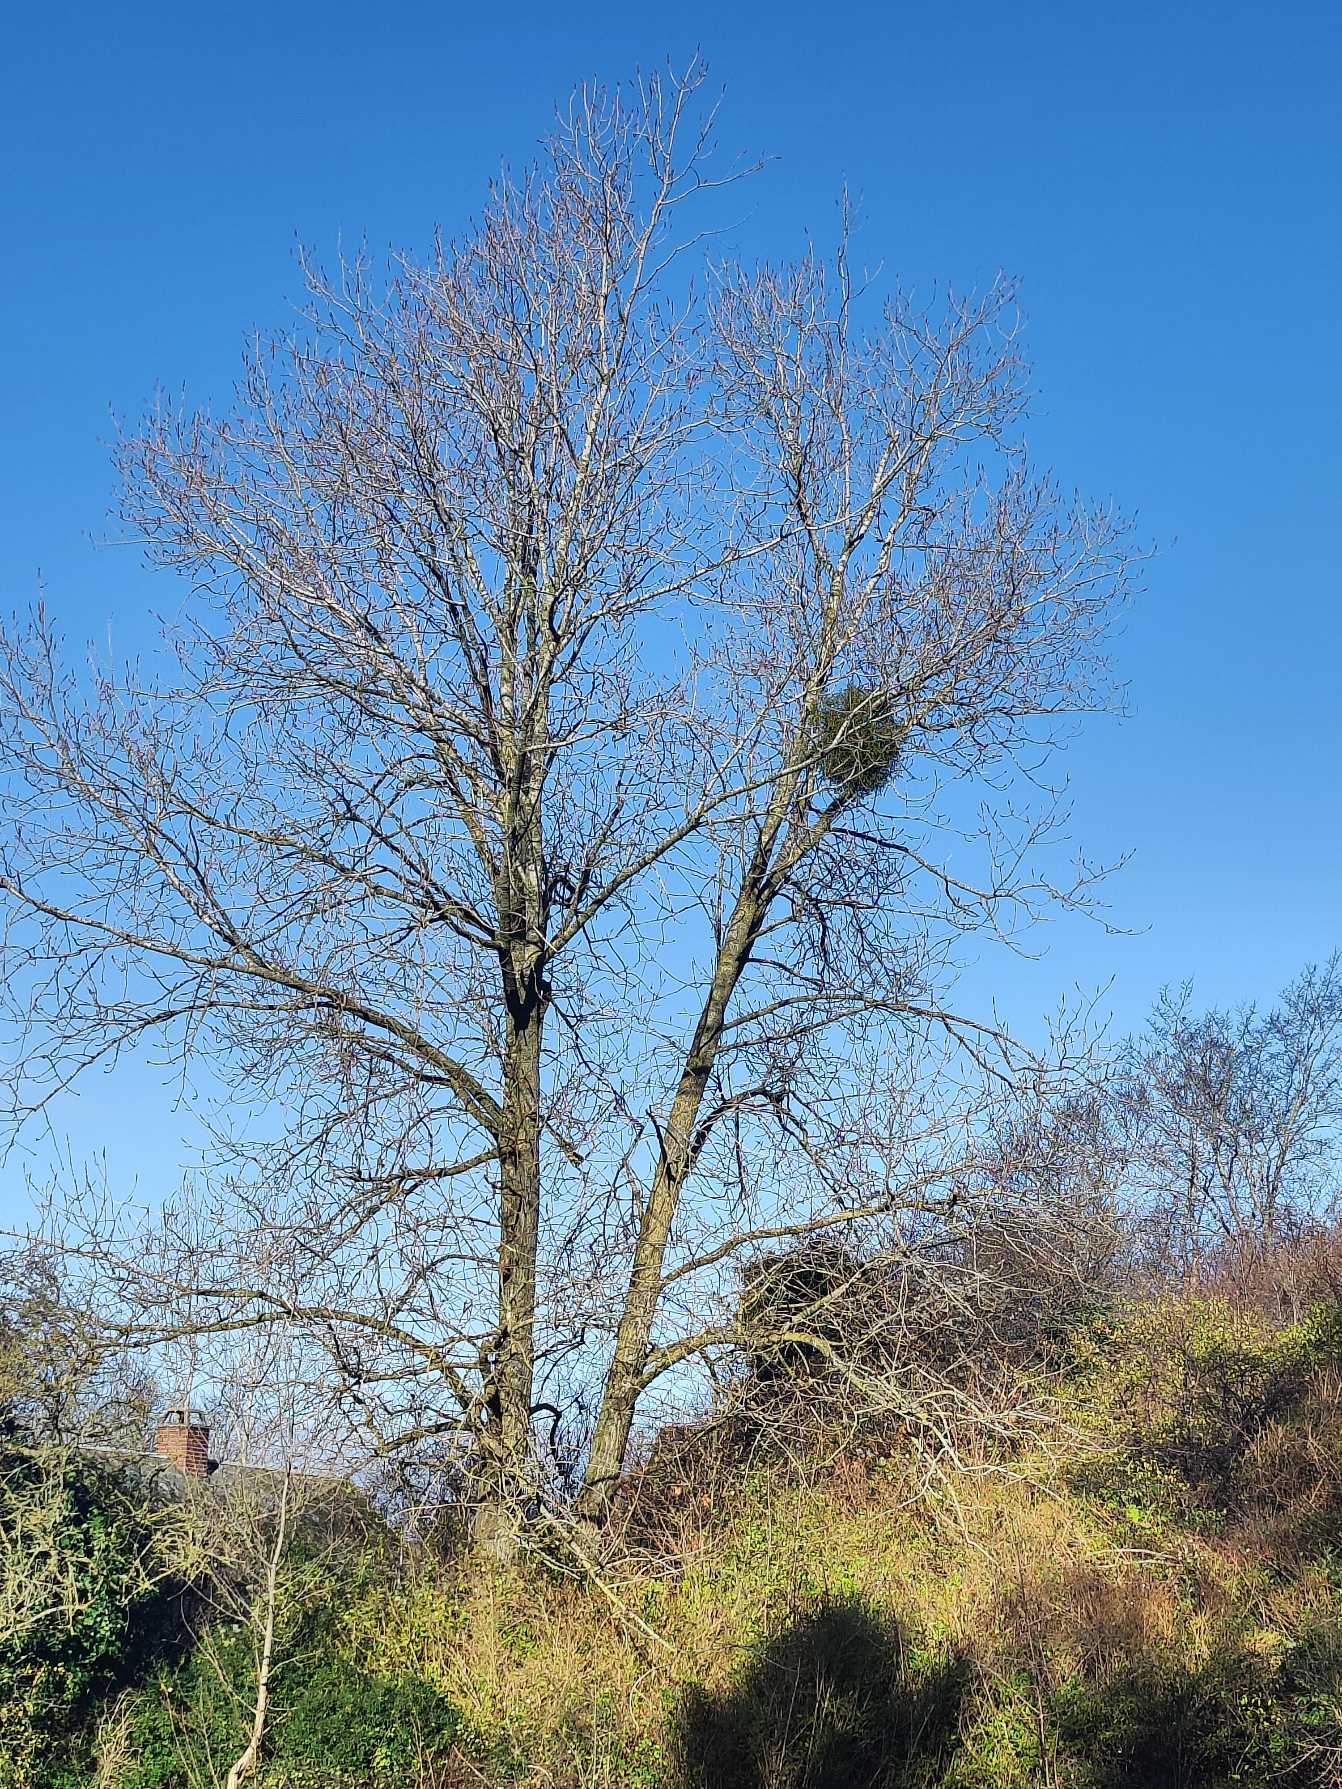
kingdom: Plantae
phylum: Tracheophyta
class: Magnoliopsida
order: Santalales
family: Viscaceae
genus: Viscum
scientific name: Viscum album
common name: Mistelten
